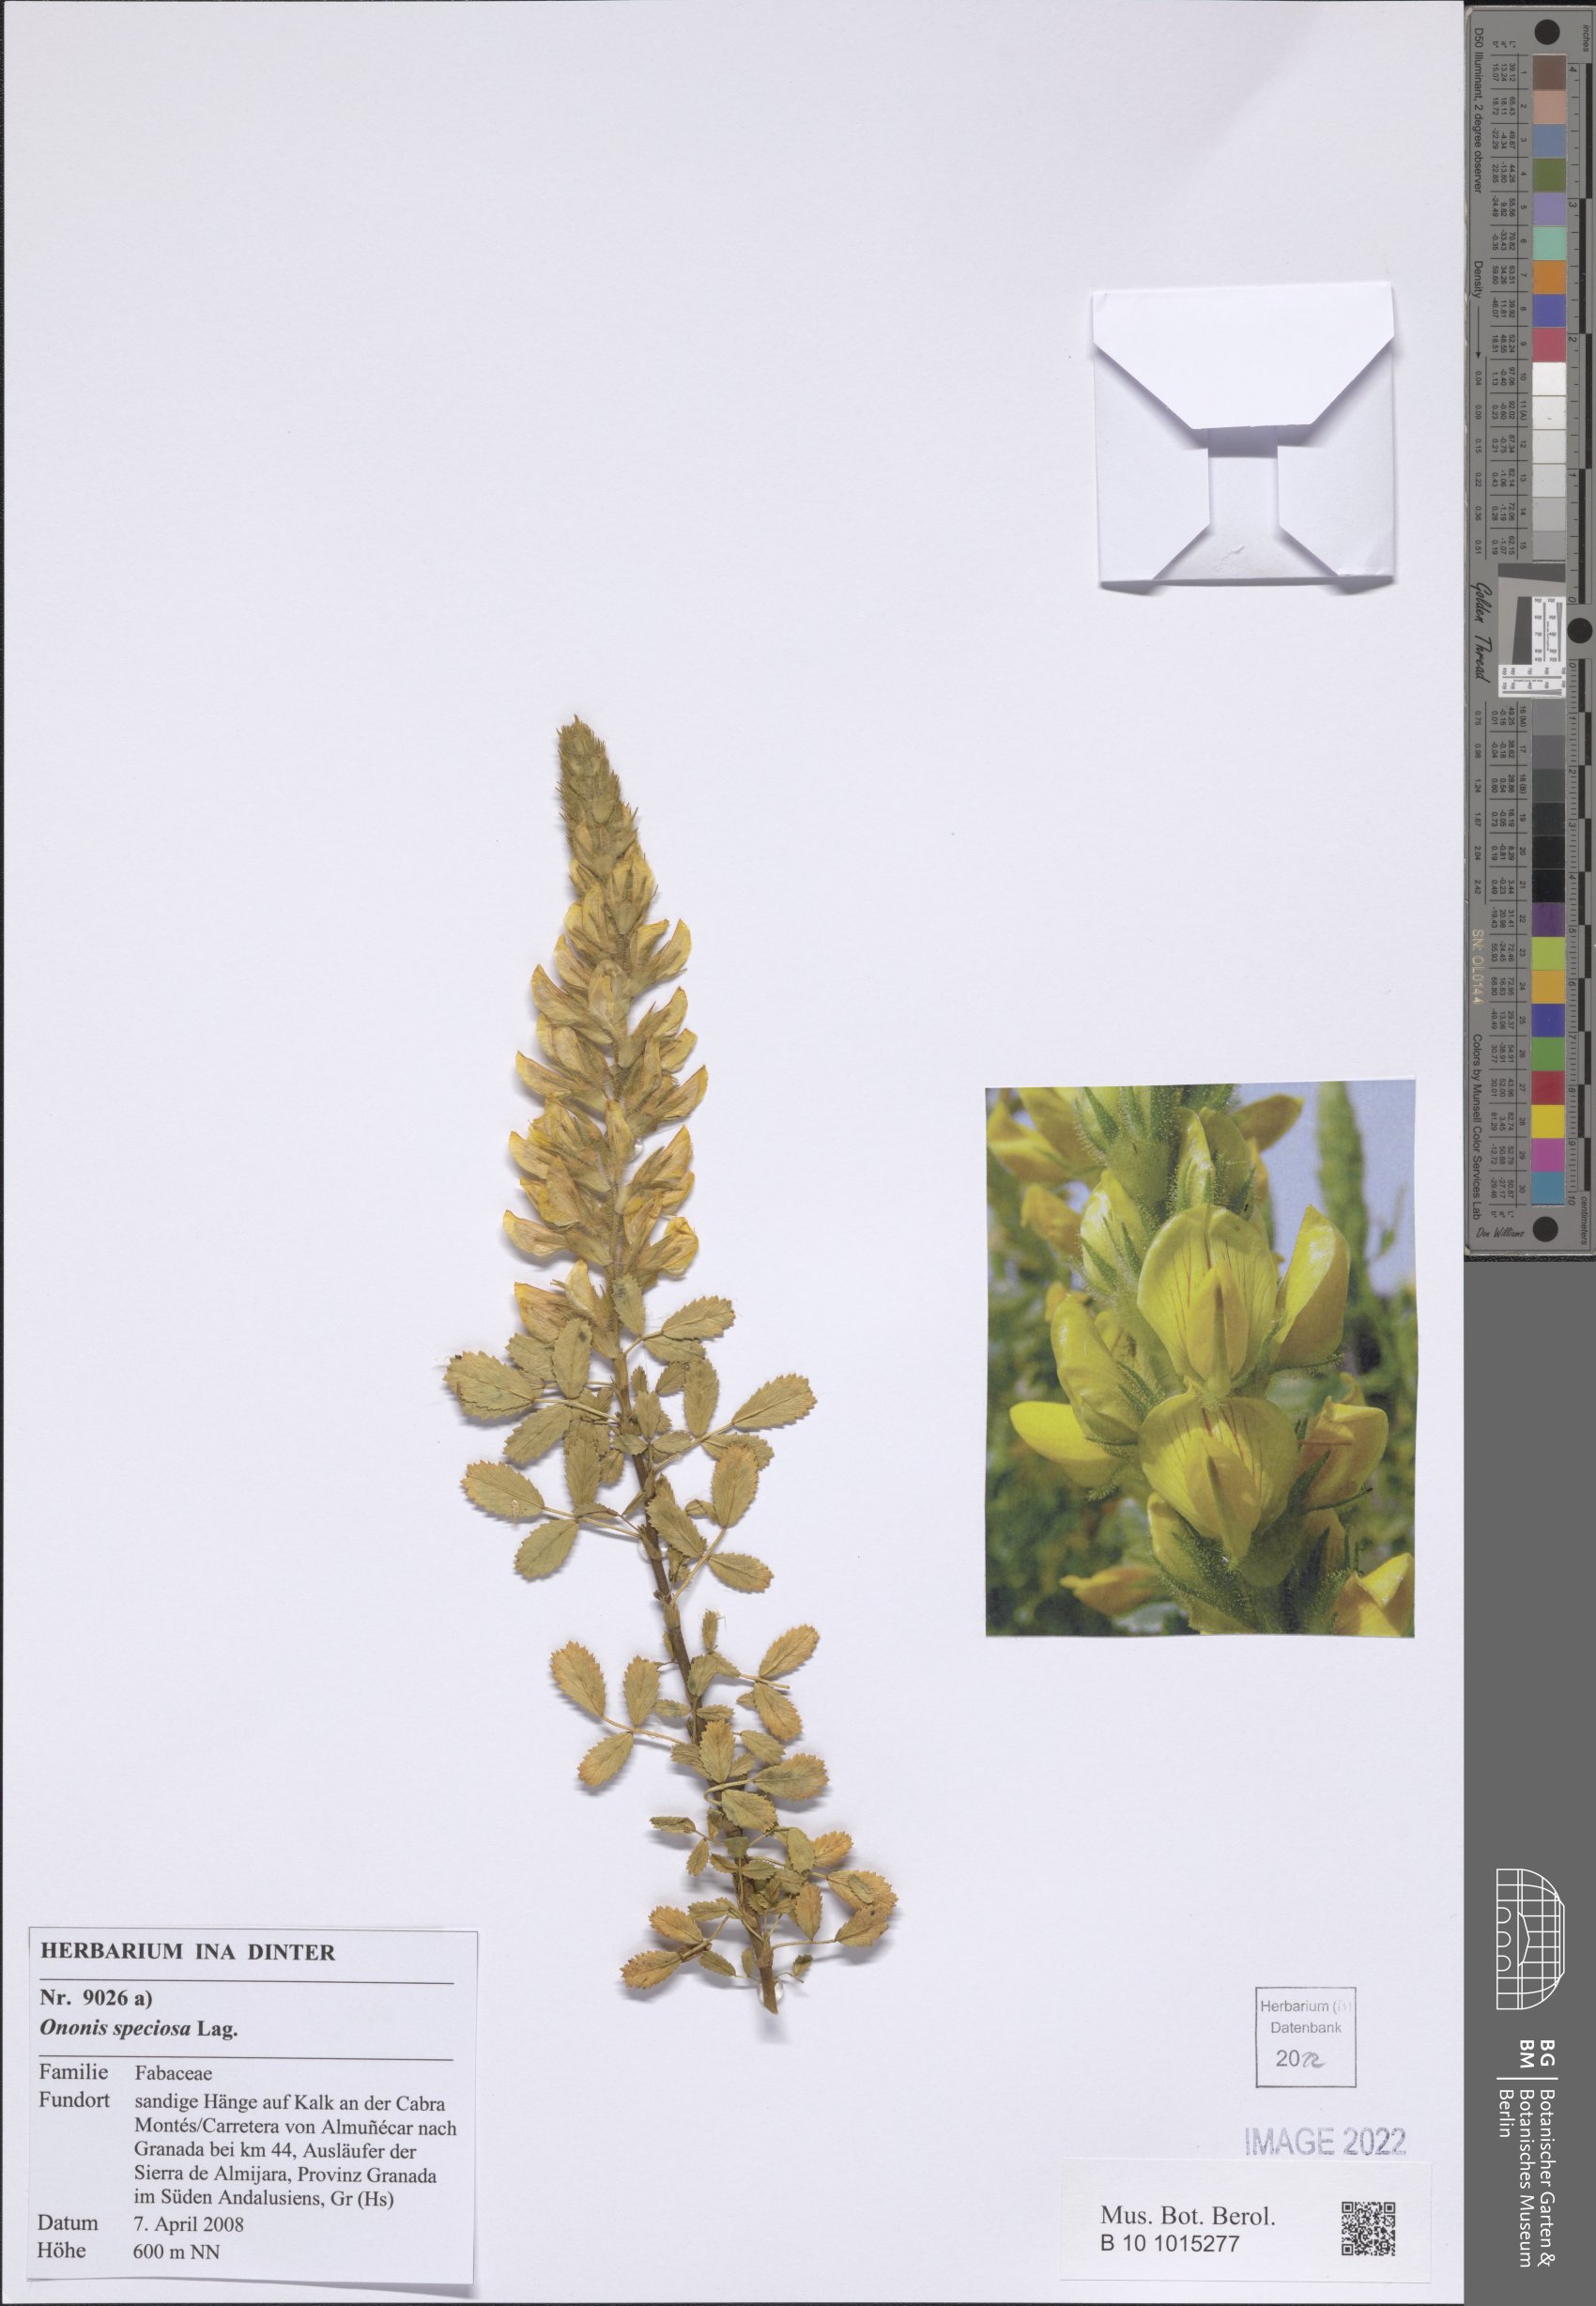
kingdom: Plantae
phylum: Tracheophyta
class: Magnoliopsida
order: Fabales
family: Fabaceae
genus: Ononis
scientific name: Ononis speciosa
